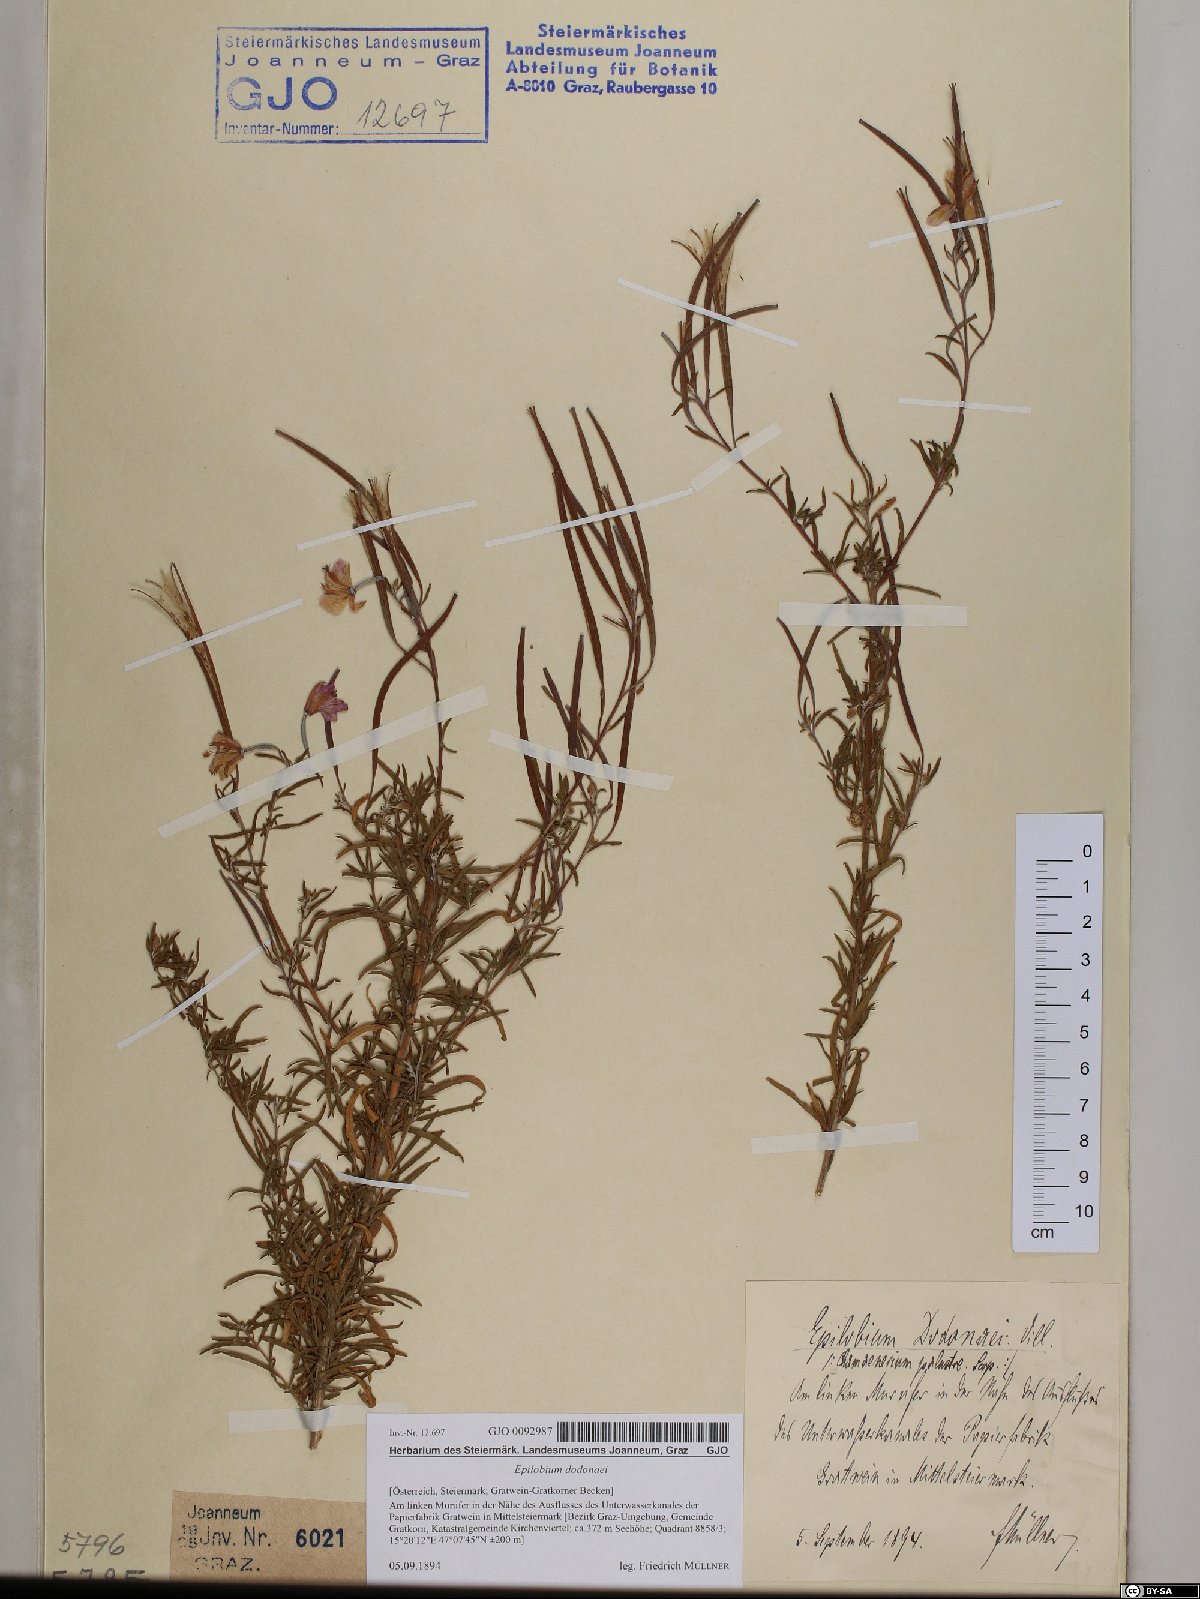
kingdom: Plantae
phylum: Tracheophyta
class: Magnoliopsida
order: Myrtales
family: Onagraceae
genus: Chamaenerion
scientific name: Chamaenerion dodonaei
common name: Rosemary-leaved willowherb
